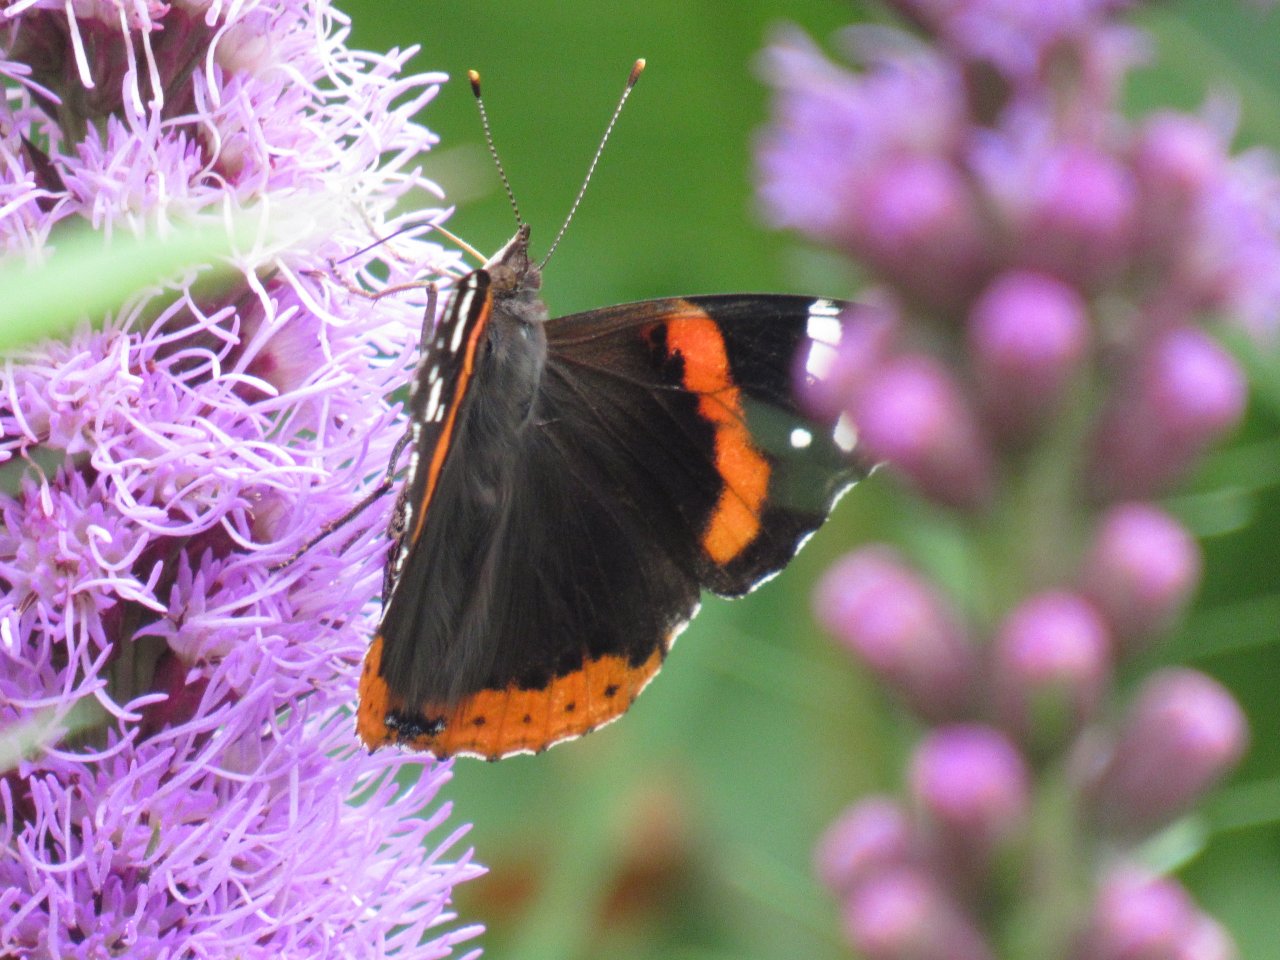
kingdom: Animalia
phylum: Arthropoda
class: Insecta
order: Lepidoptera
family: Nymphalidae
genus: Vanessa
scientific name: Vanessa atalanta
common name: Red Admiral
